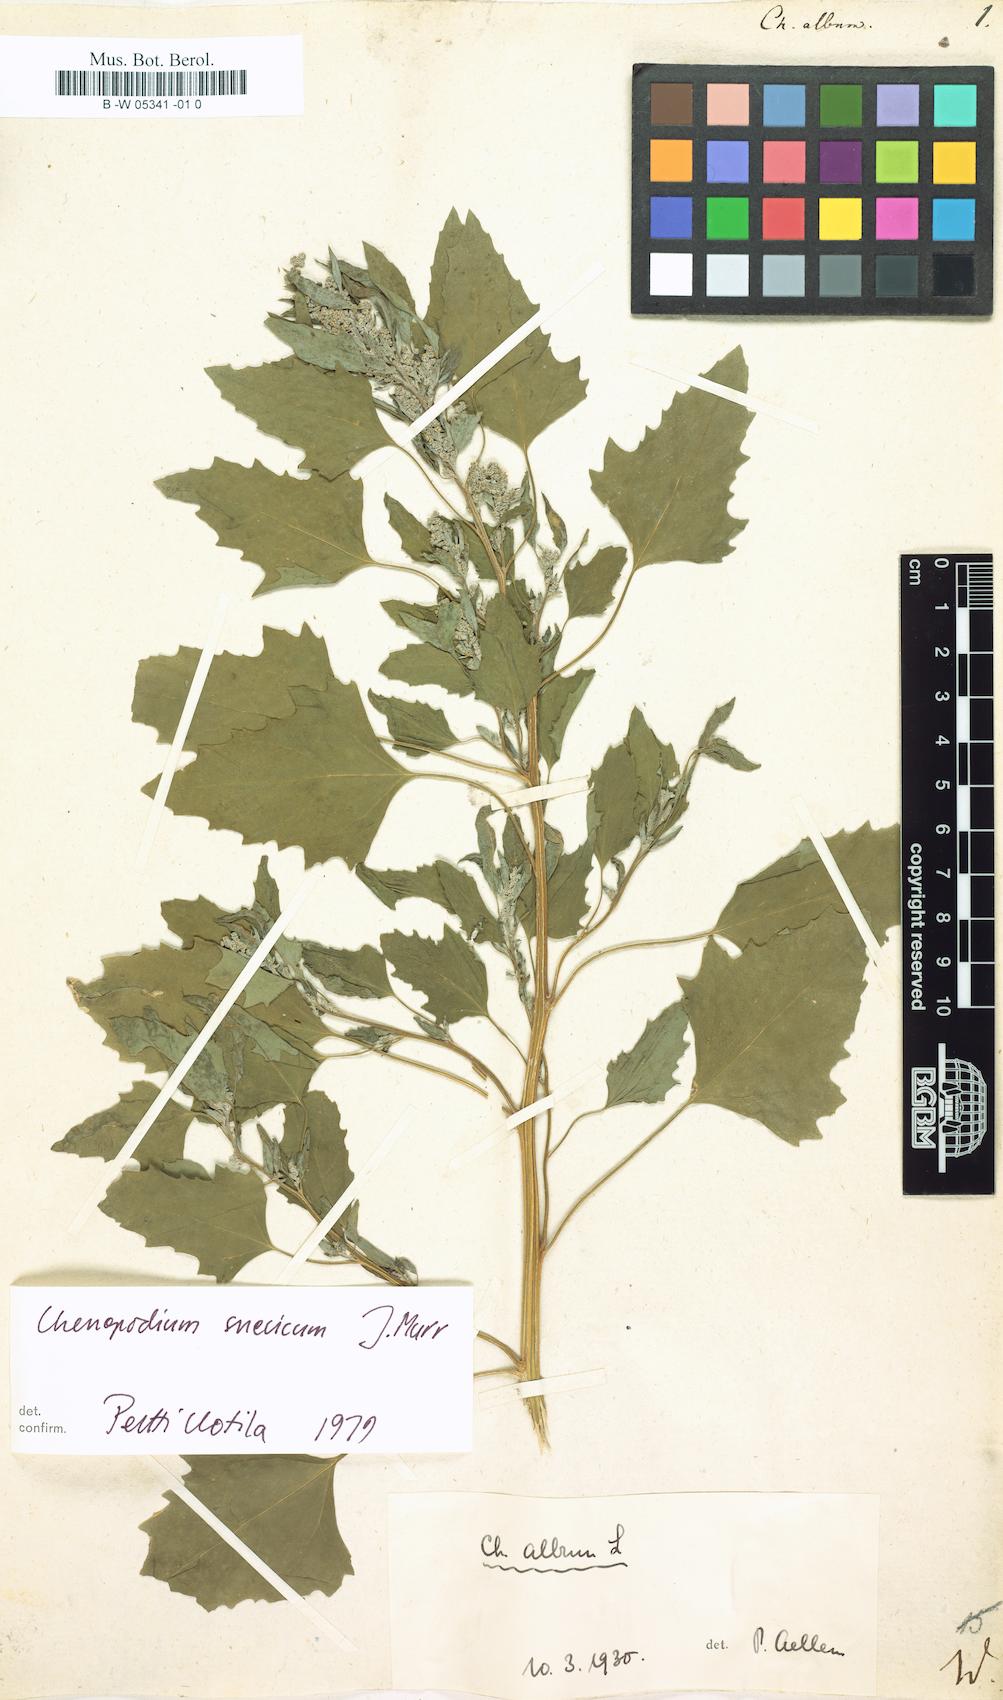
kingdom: Plantae
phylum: Tracheophyta
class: Magnoliopsida
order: Caryophyllales
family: Amaranthaceae
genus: Chenopodium
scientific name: Chenopodium album
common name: Fat-hen
